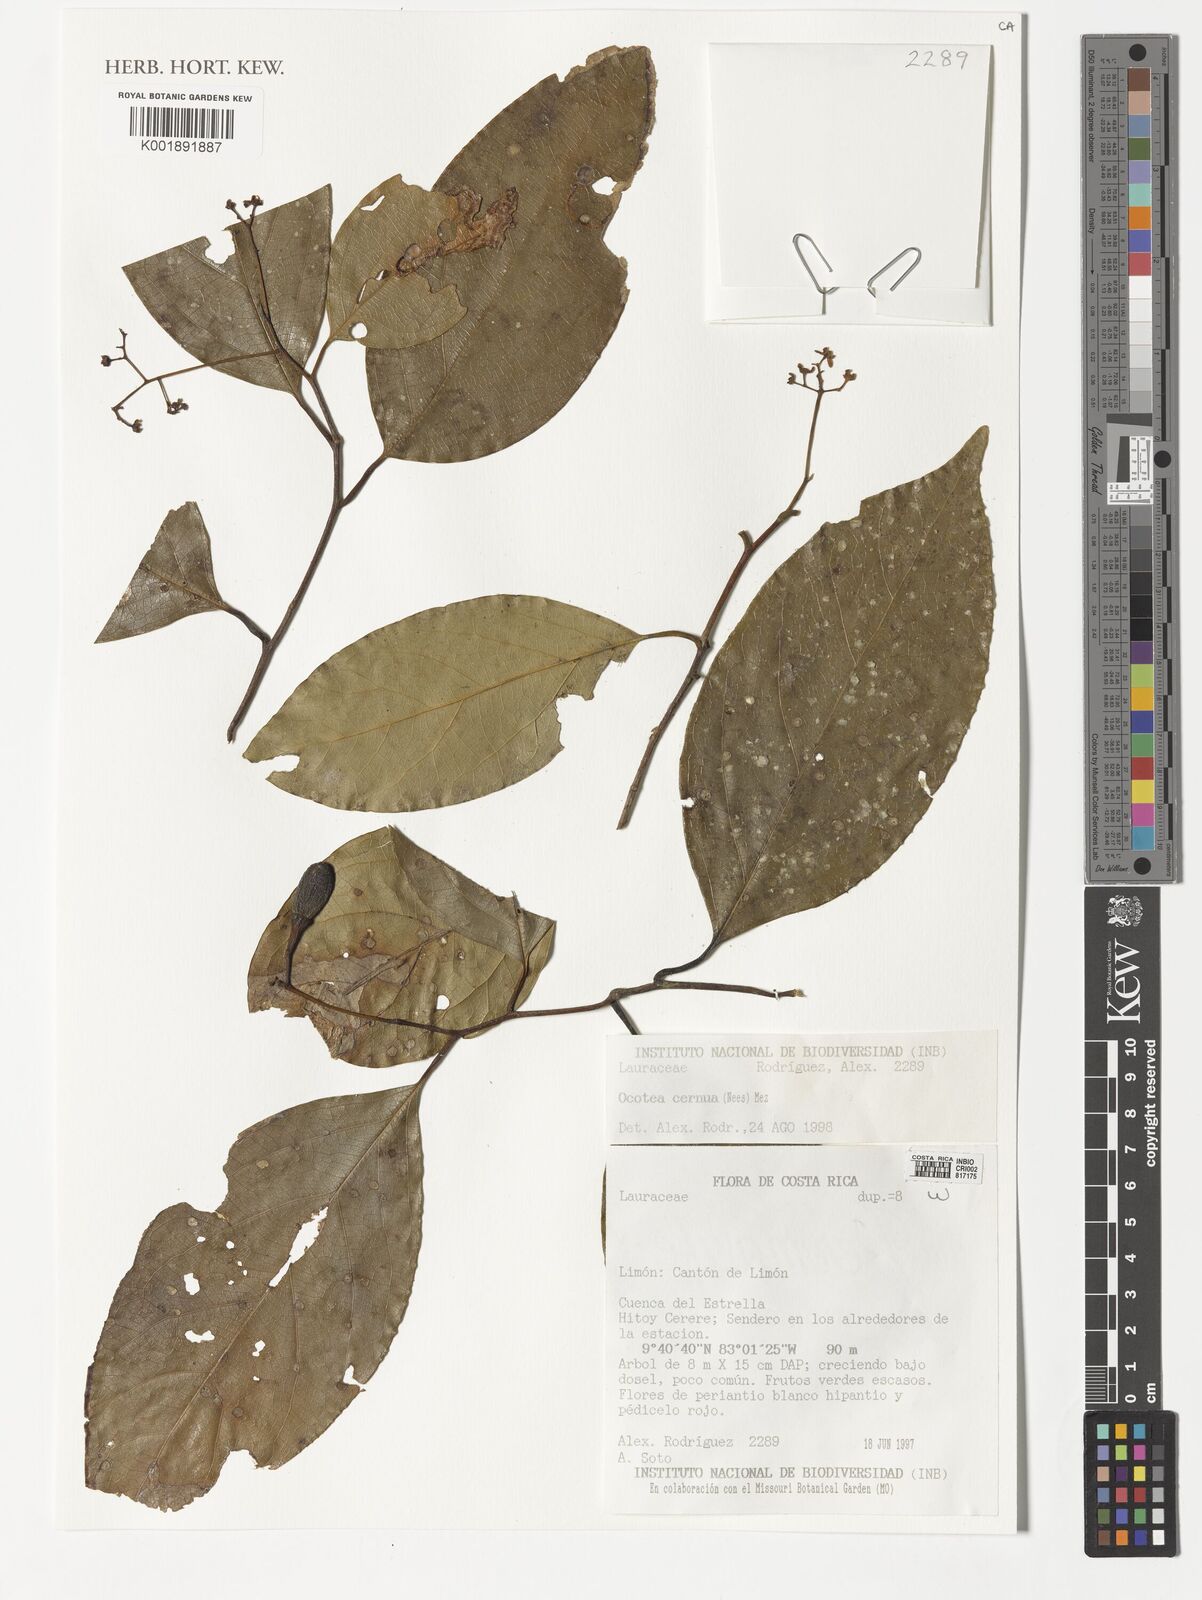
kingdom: Plantae
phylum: Tracheophyta
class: Magnoliopsida
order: Laurales
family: Lauraceae
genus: Ocotea
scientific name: Ocotea leptobotra
